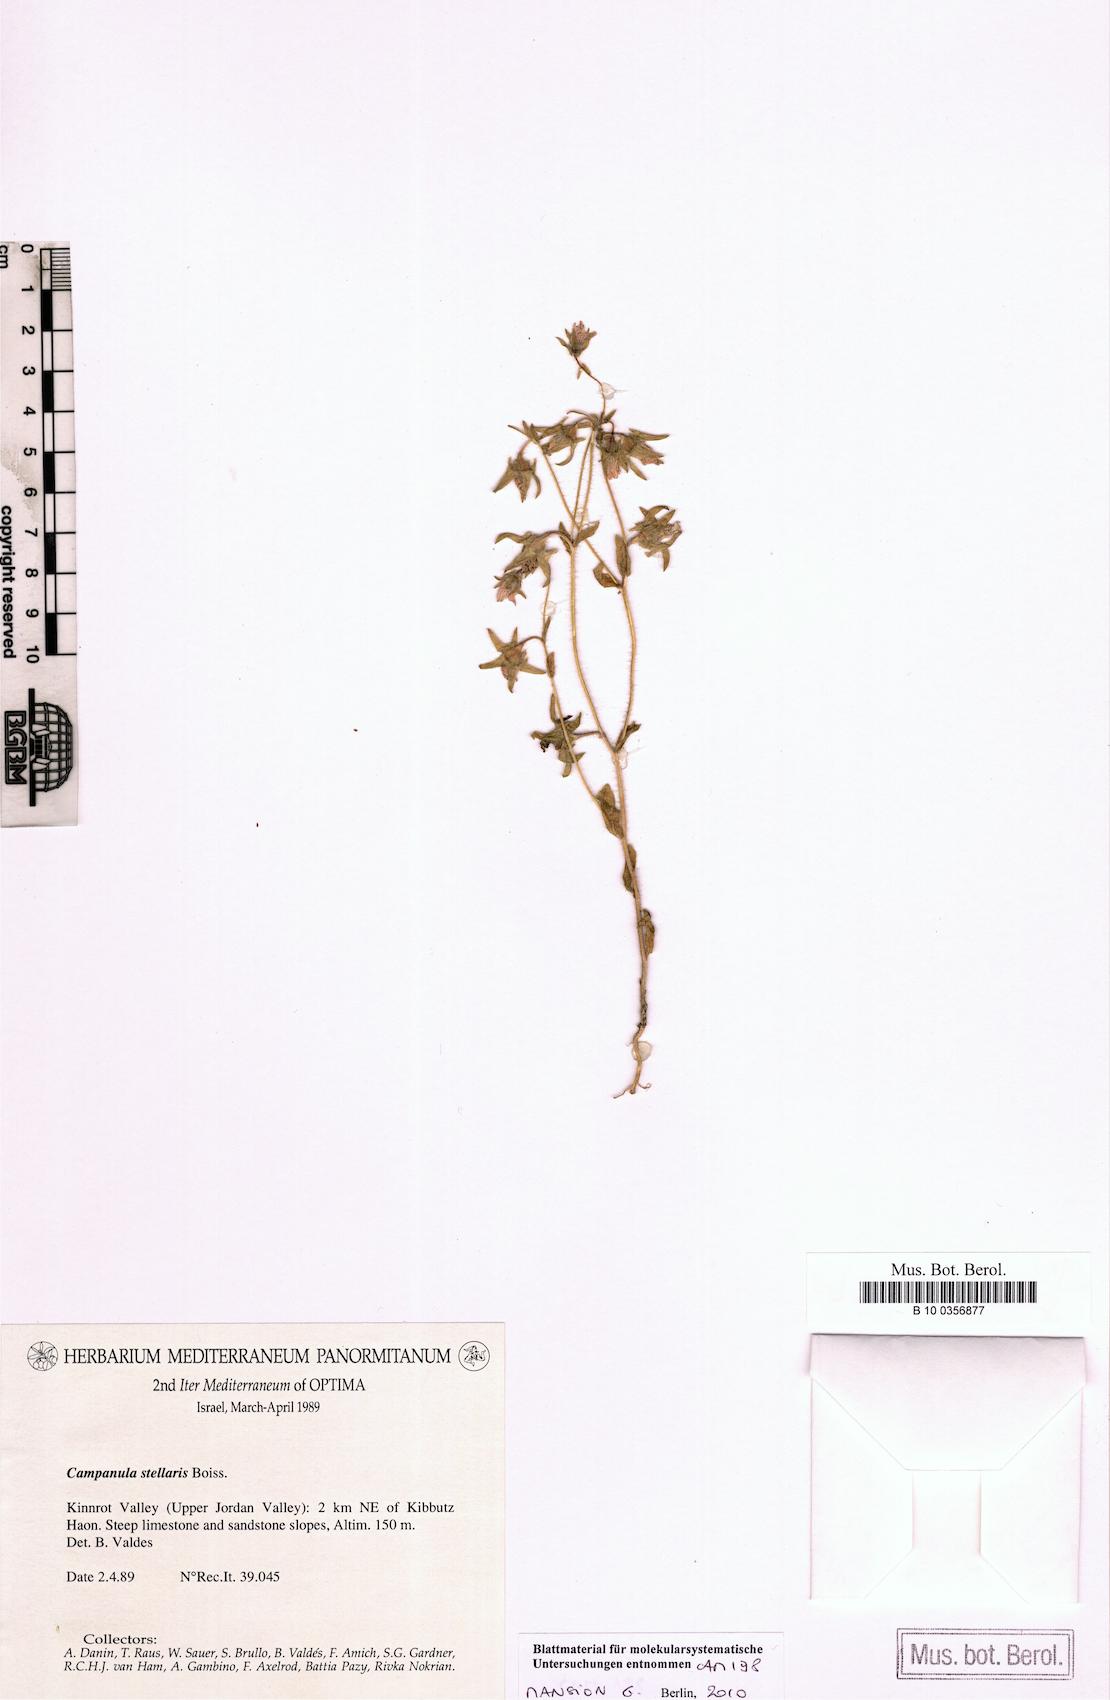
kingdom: Plantae
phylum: Tracheophyta
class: Magnoliopsida
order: Asterales
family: Campanulaceae
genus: Campanula
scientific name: Campanula stellaris
